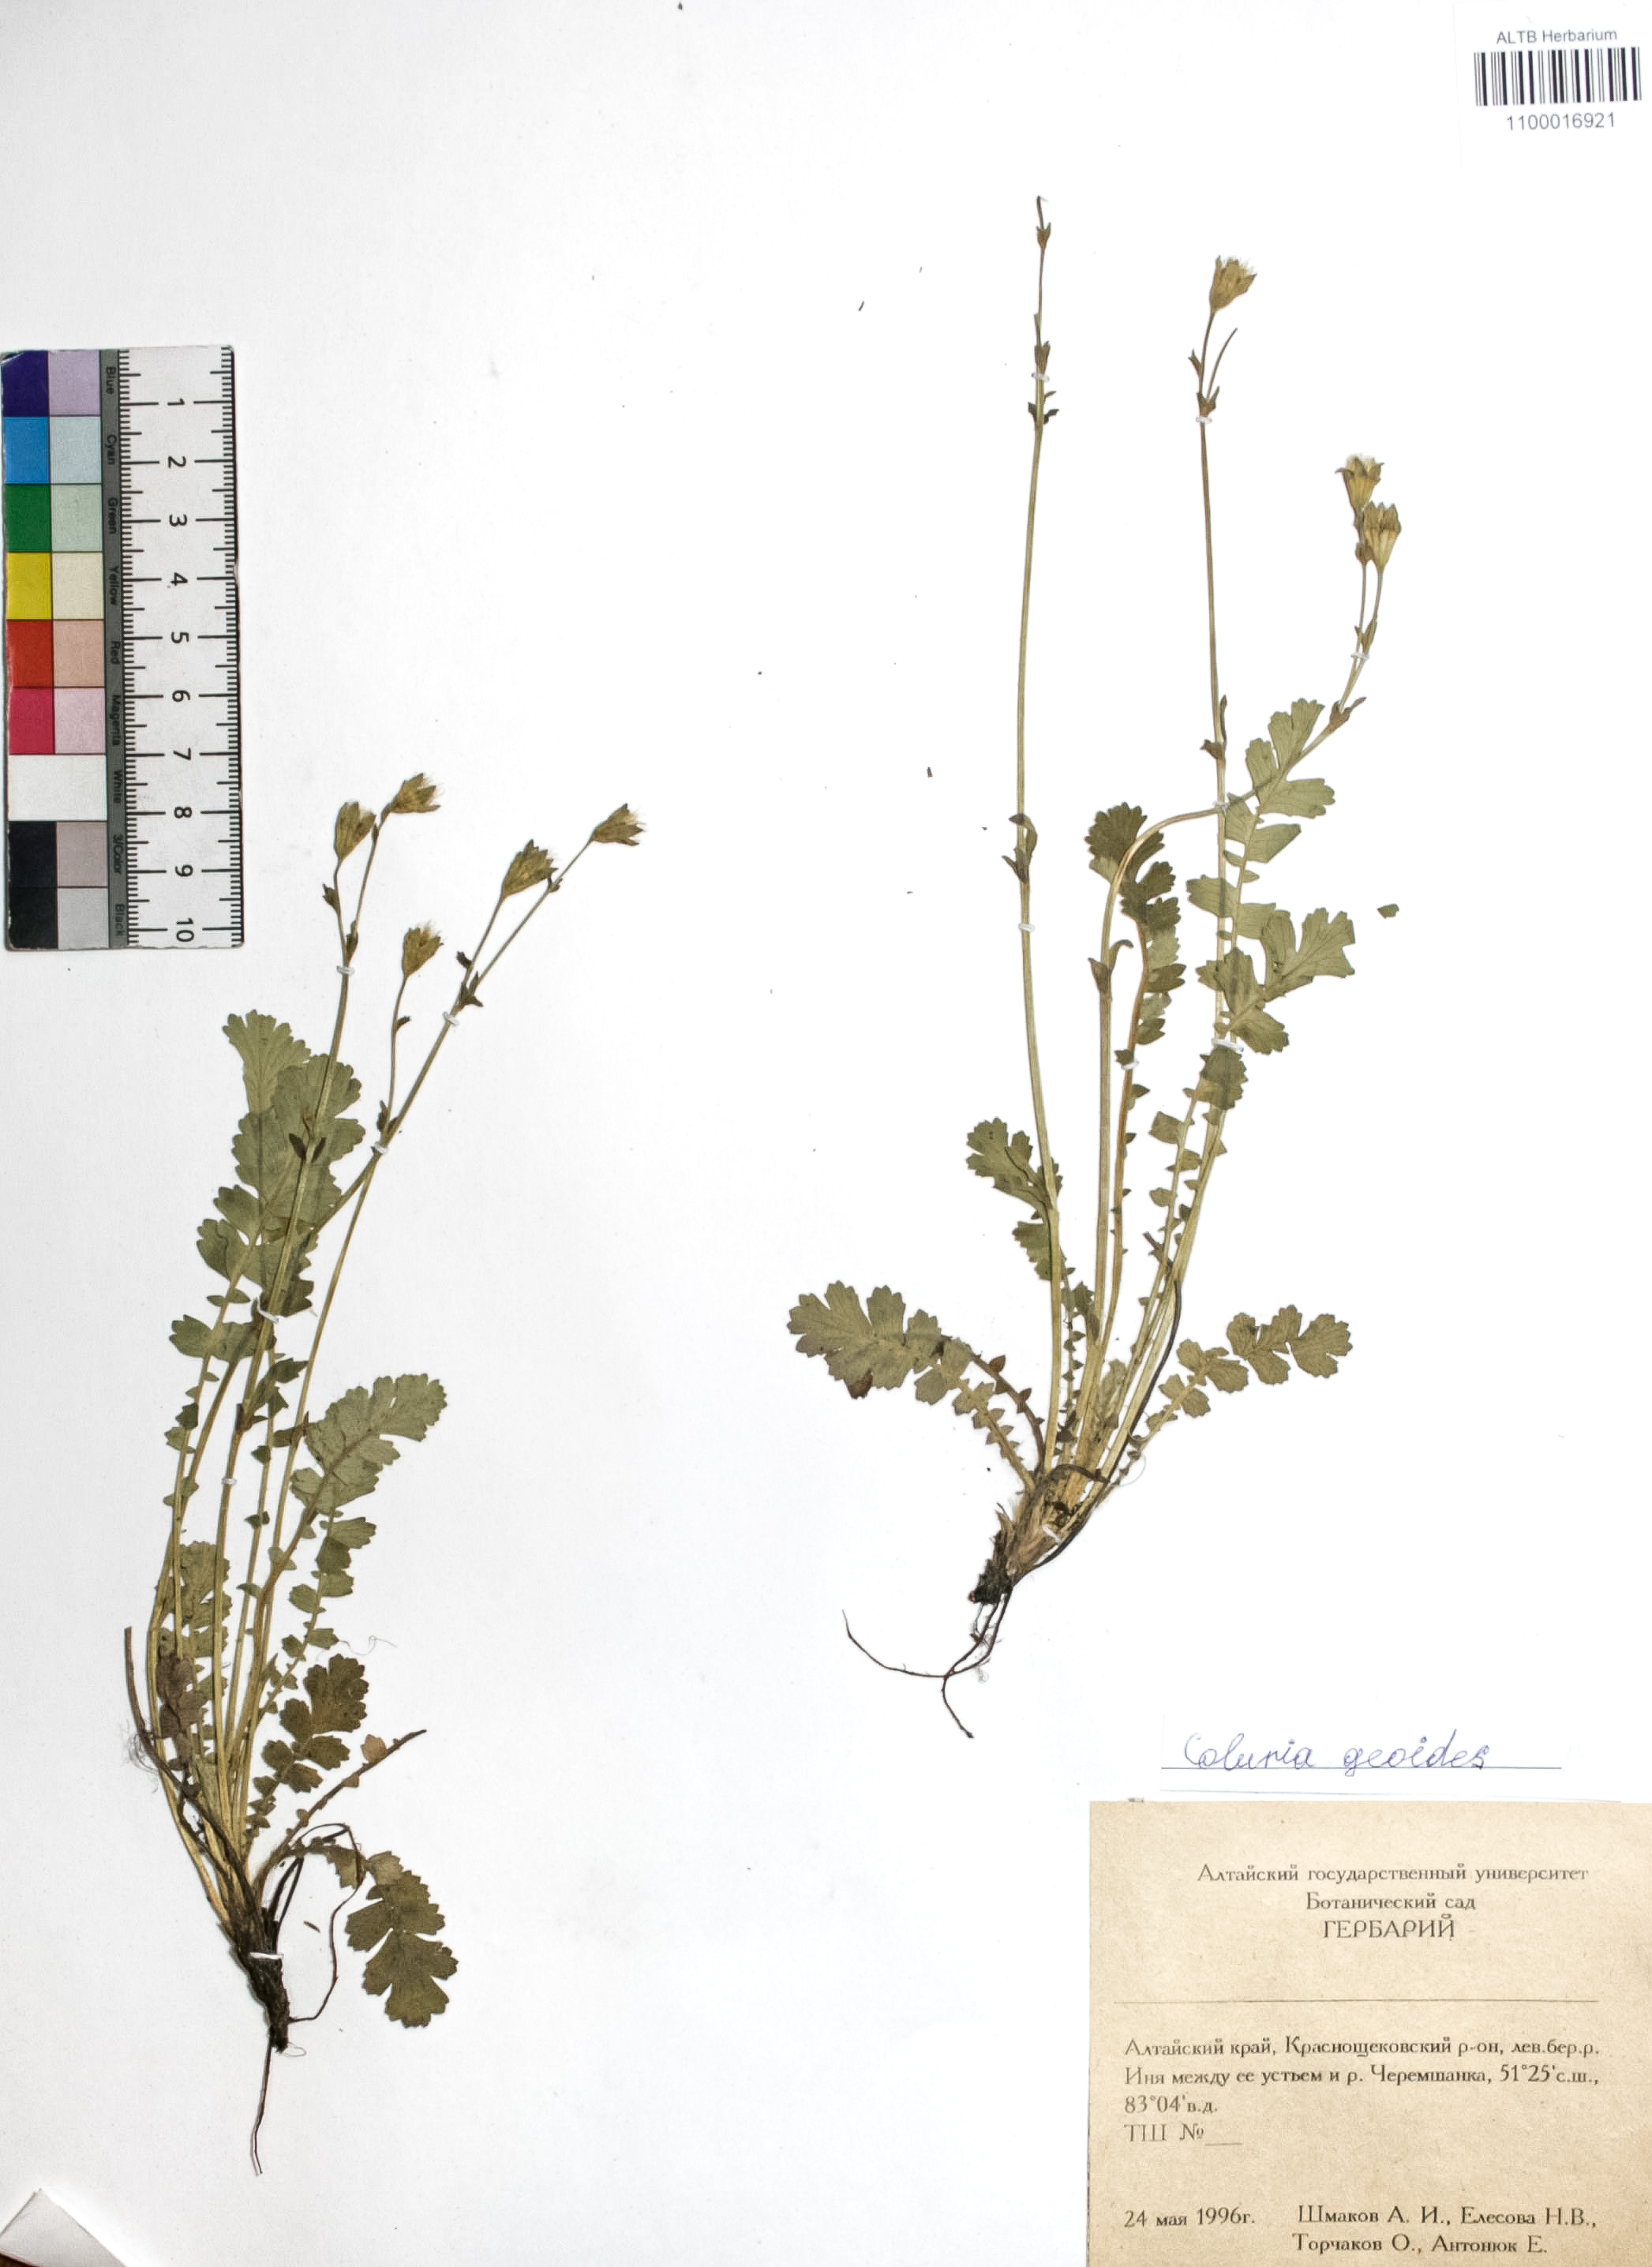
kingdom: Plantae
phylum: Tracheophyta
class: Magnoliopsida
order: Rosales
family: Rosaceae
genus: Geum
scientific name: Geum geoides
